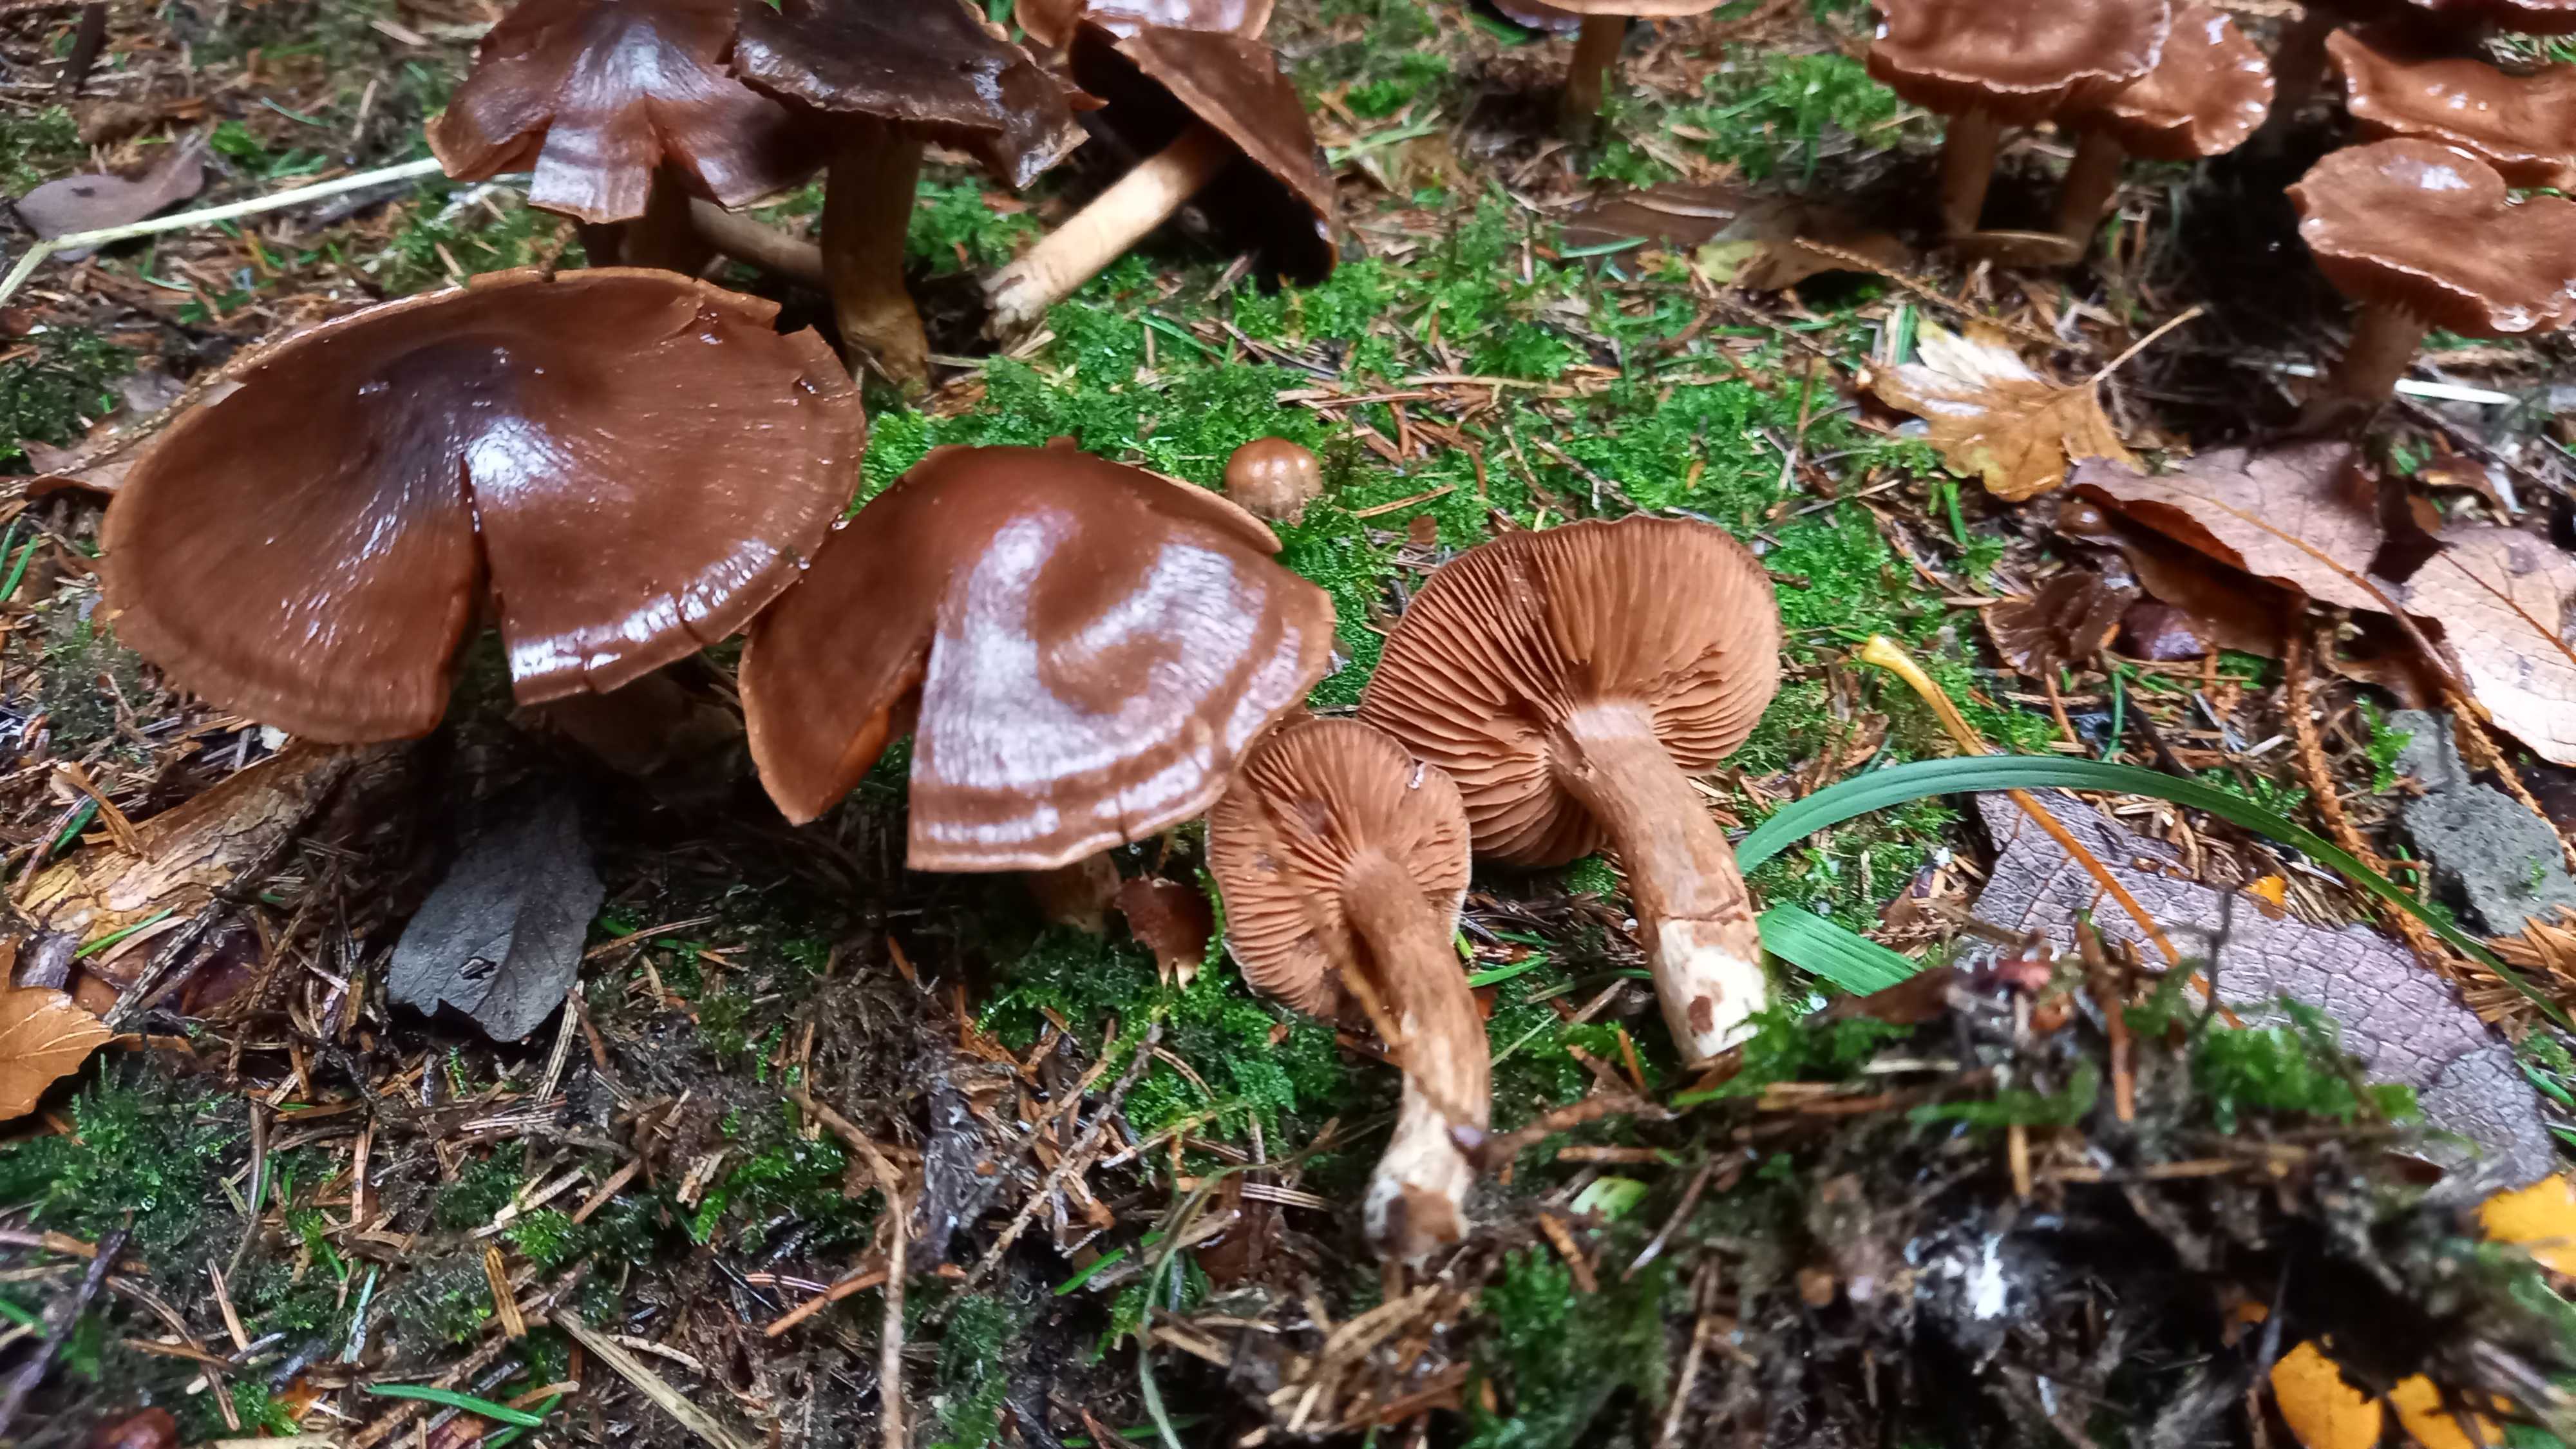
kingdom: Fungi
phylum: Basidiomycota
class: Agaricomycetes
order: Agaricales
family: Cortinariaceae
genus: Cortinarius
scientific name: Cortinarius
